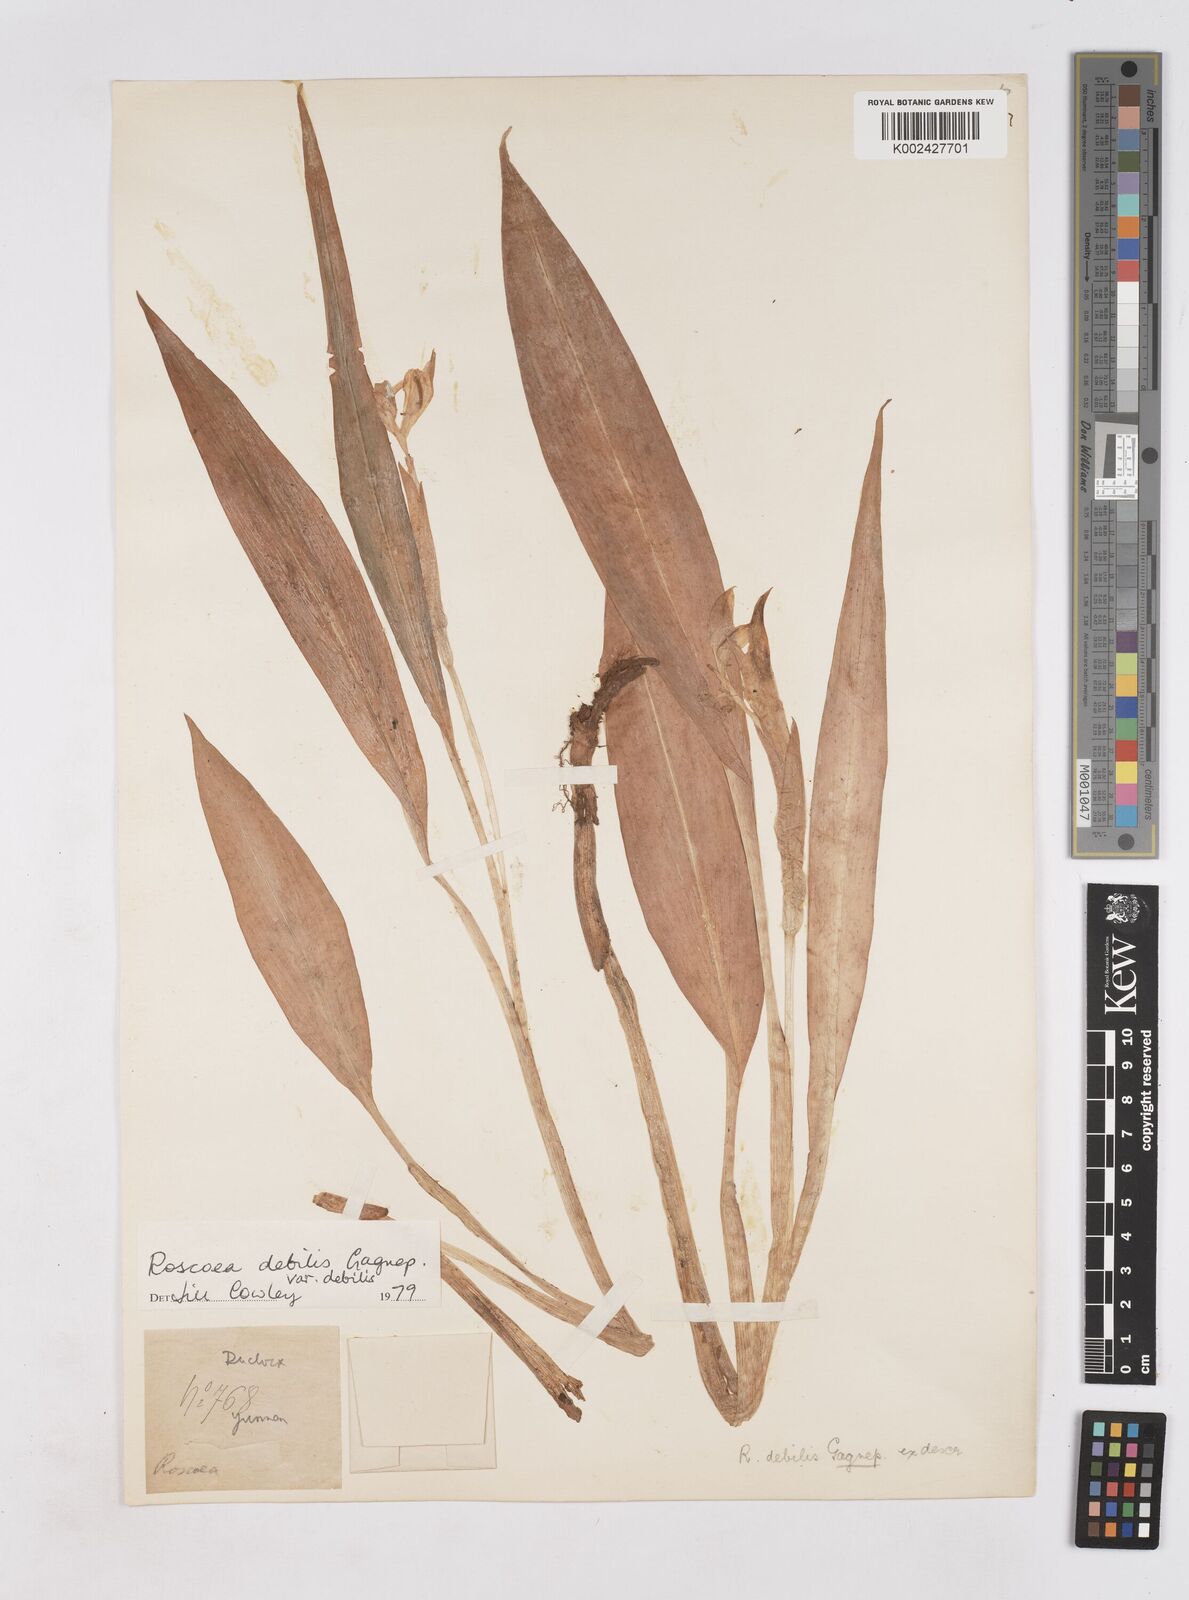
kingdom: Plantae
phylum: Tracheophyta
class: Liliopsida
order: Zingiberales
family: Zingiberaceae
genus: Roscoea
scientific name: Roscoea debilis
